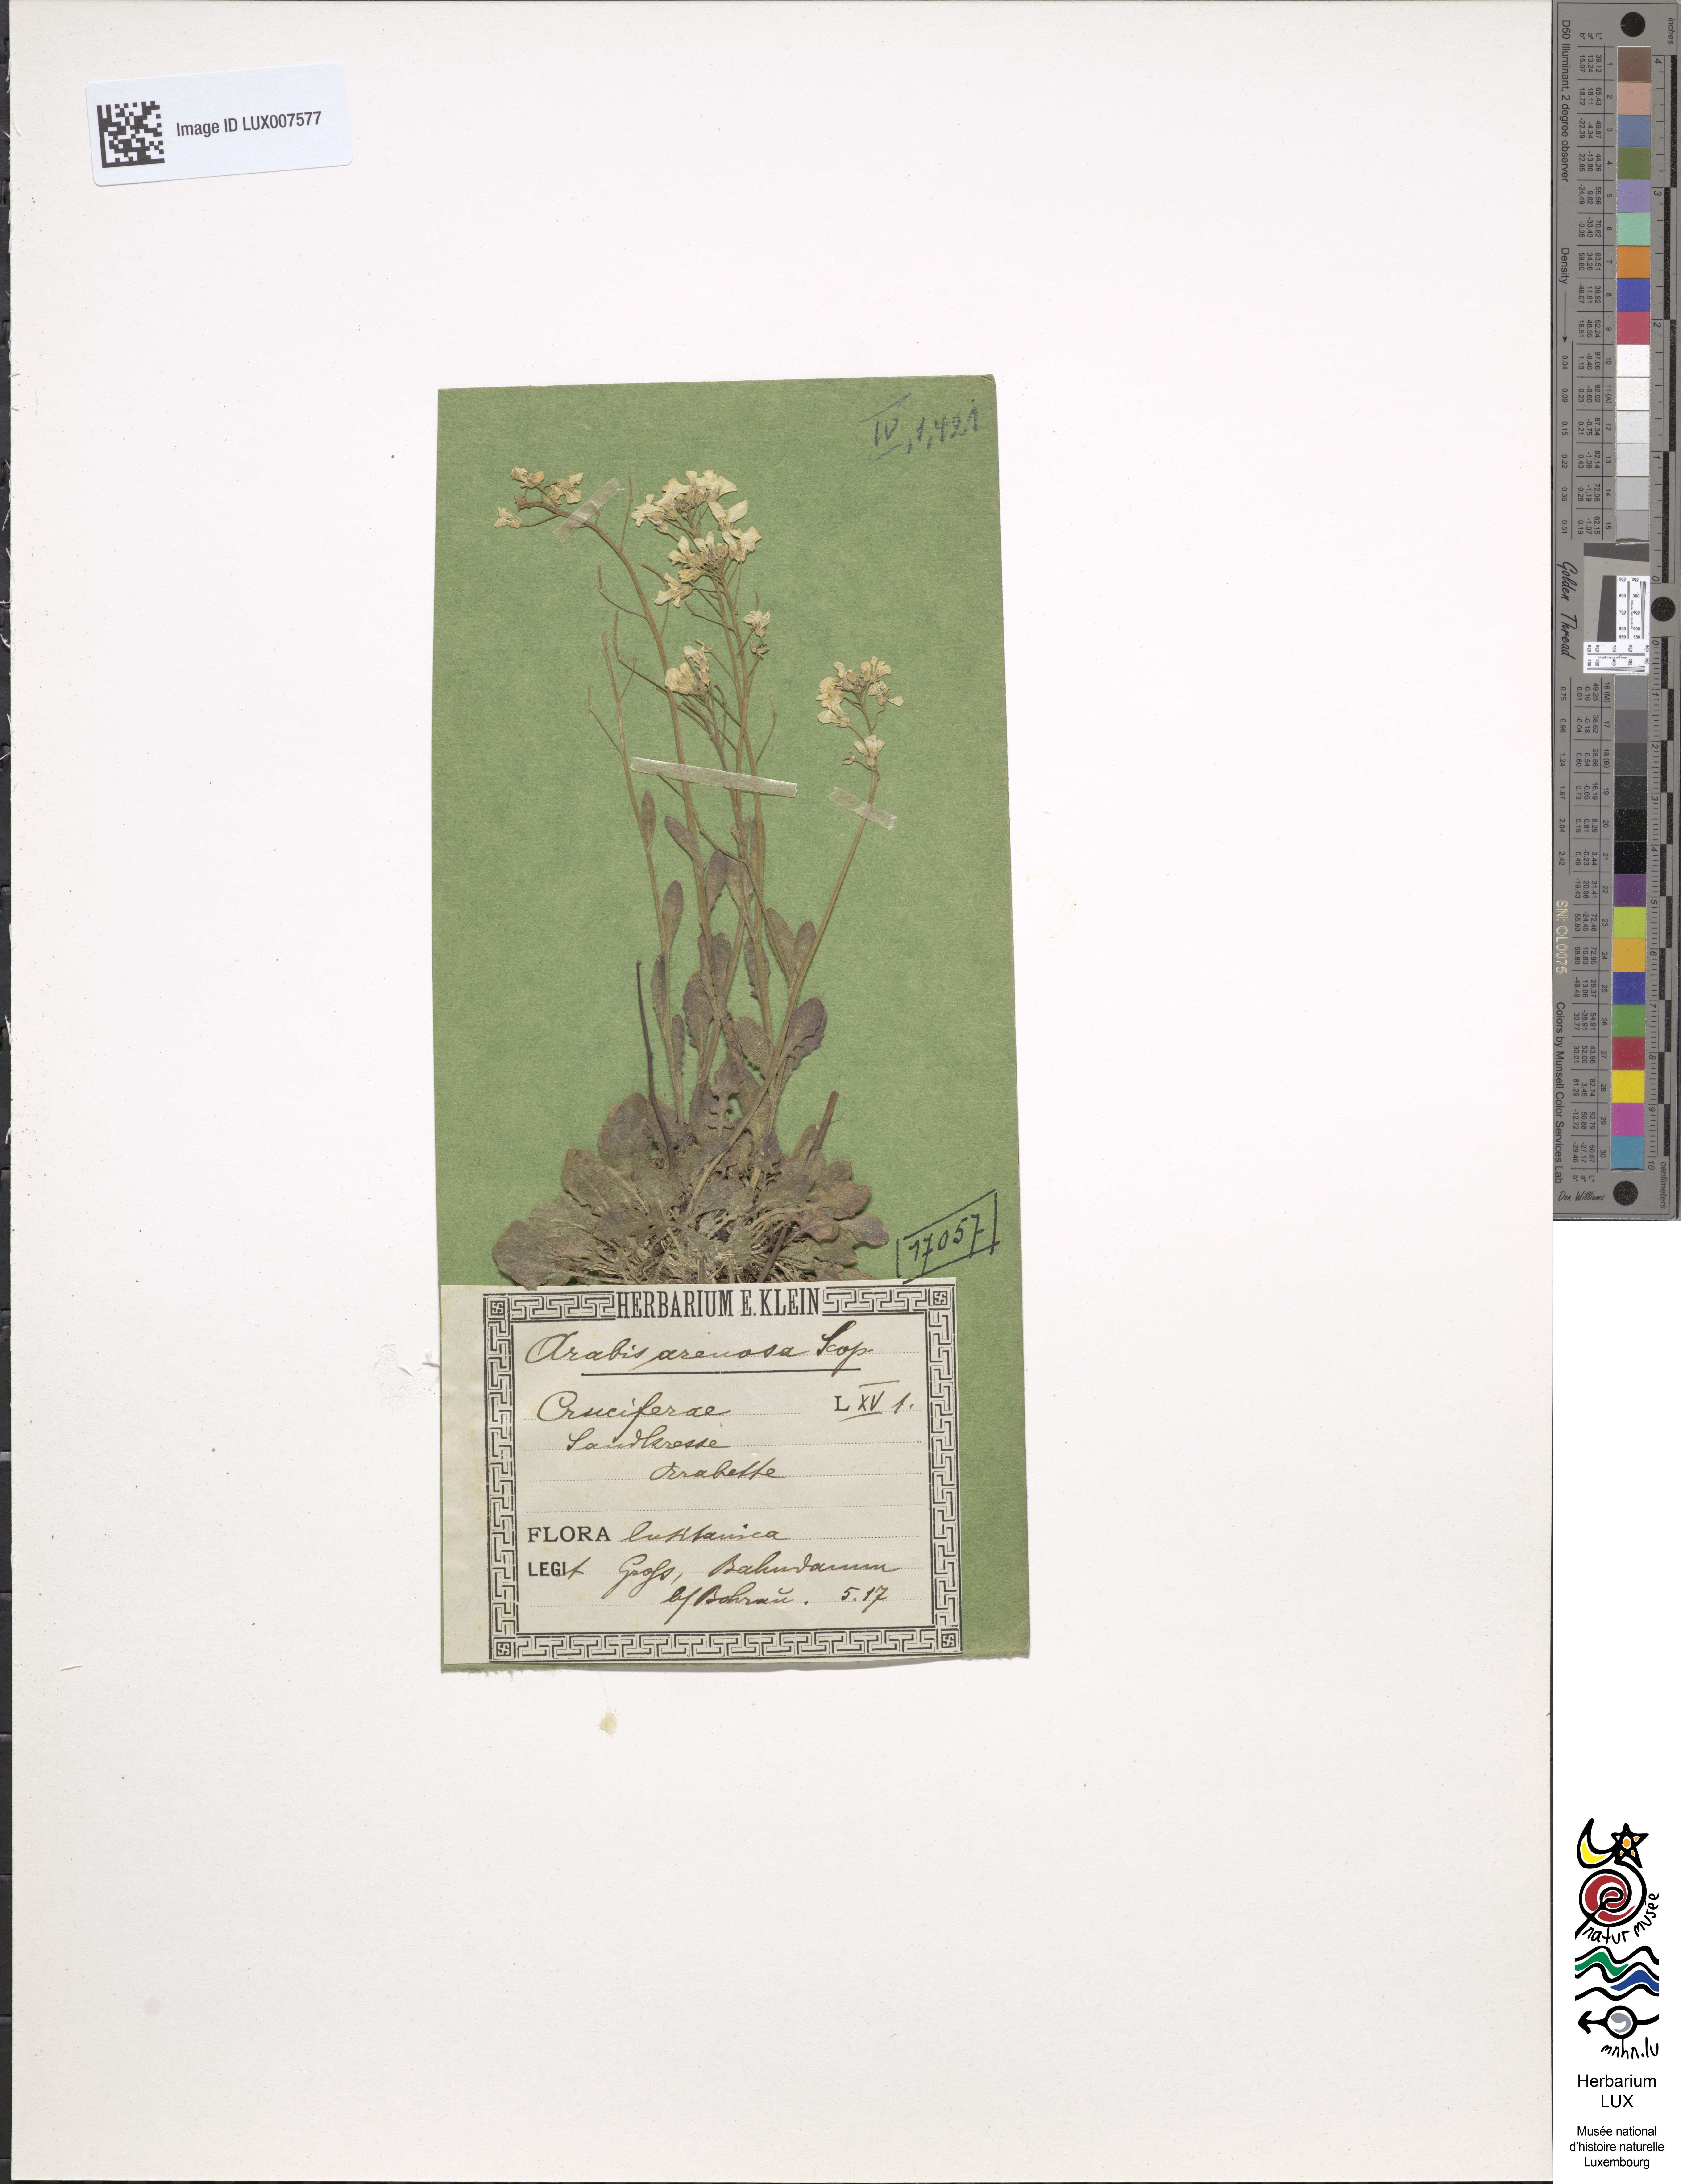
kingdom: Plantae
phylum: Tracheophyta
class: Magnoliopsida
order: Brassicales
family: Brassicaceae
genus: Arabidopsis
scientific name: Arabidopsis arenosa
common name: Sand rock-cress
